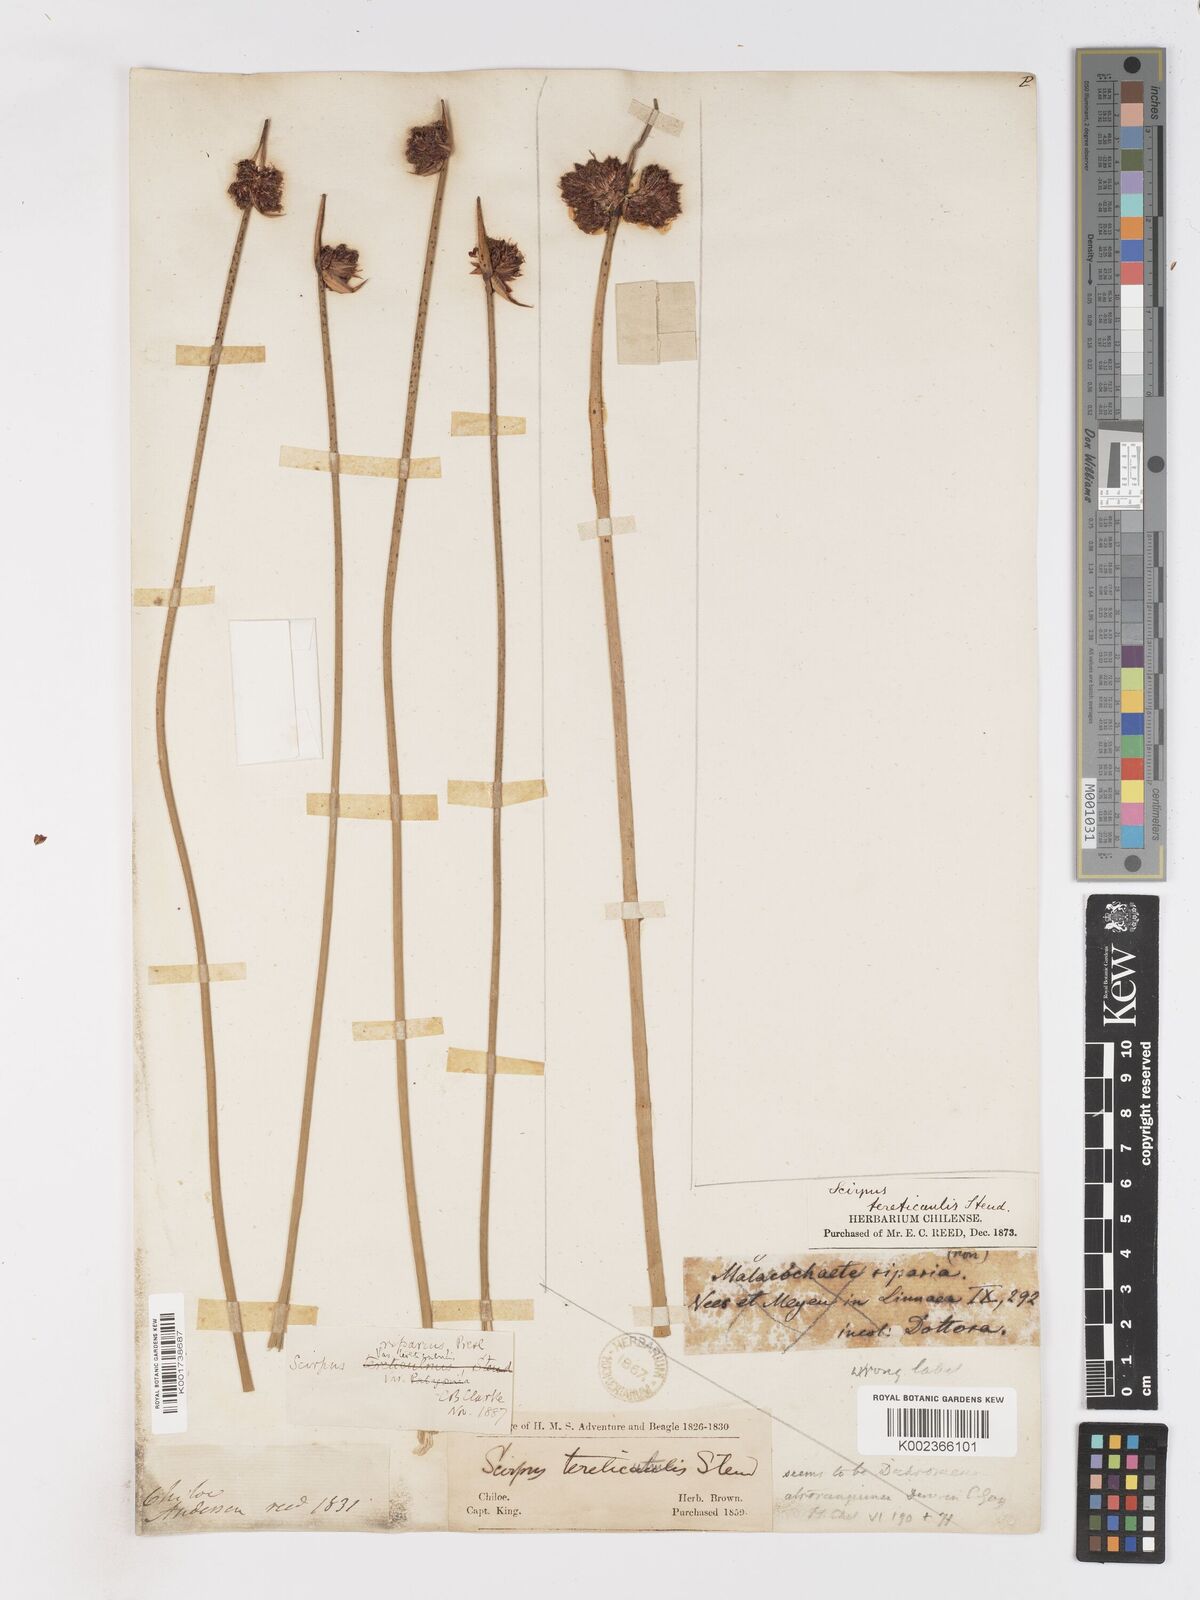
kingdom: Plantae
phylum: Tracheophyta
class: Liliopsida
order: Poales
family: Cyperaceae
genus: Schoenoplectus
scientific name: Schoenoplectus californicus
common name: California bulrush
